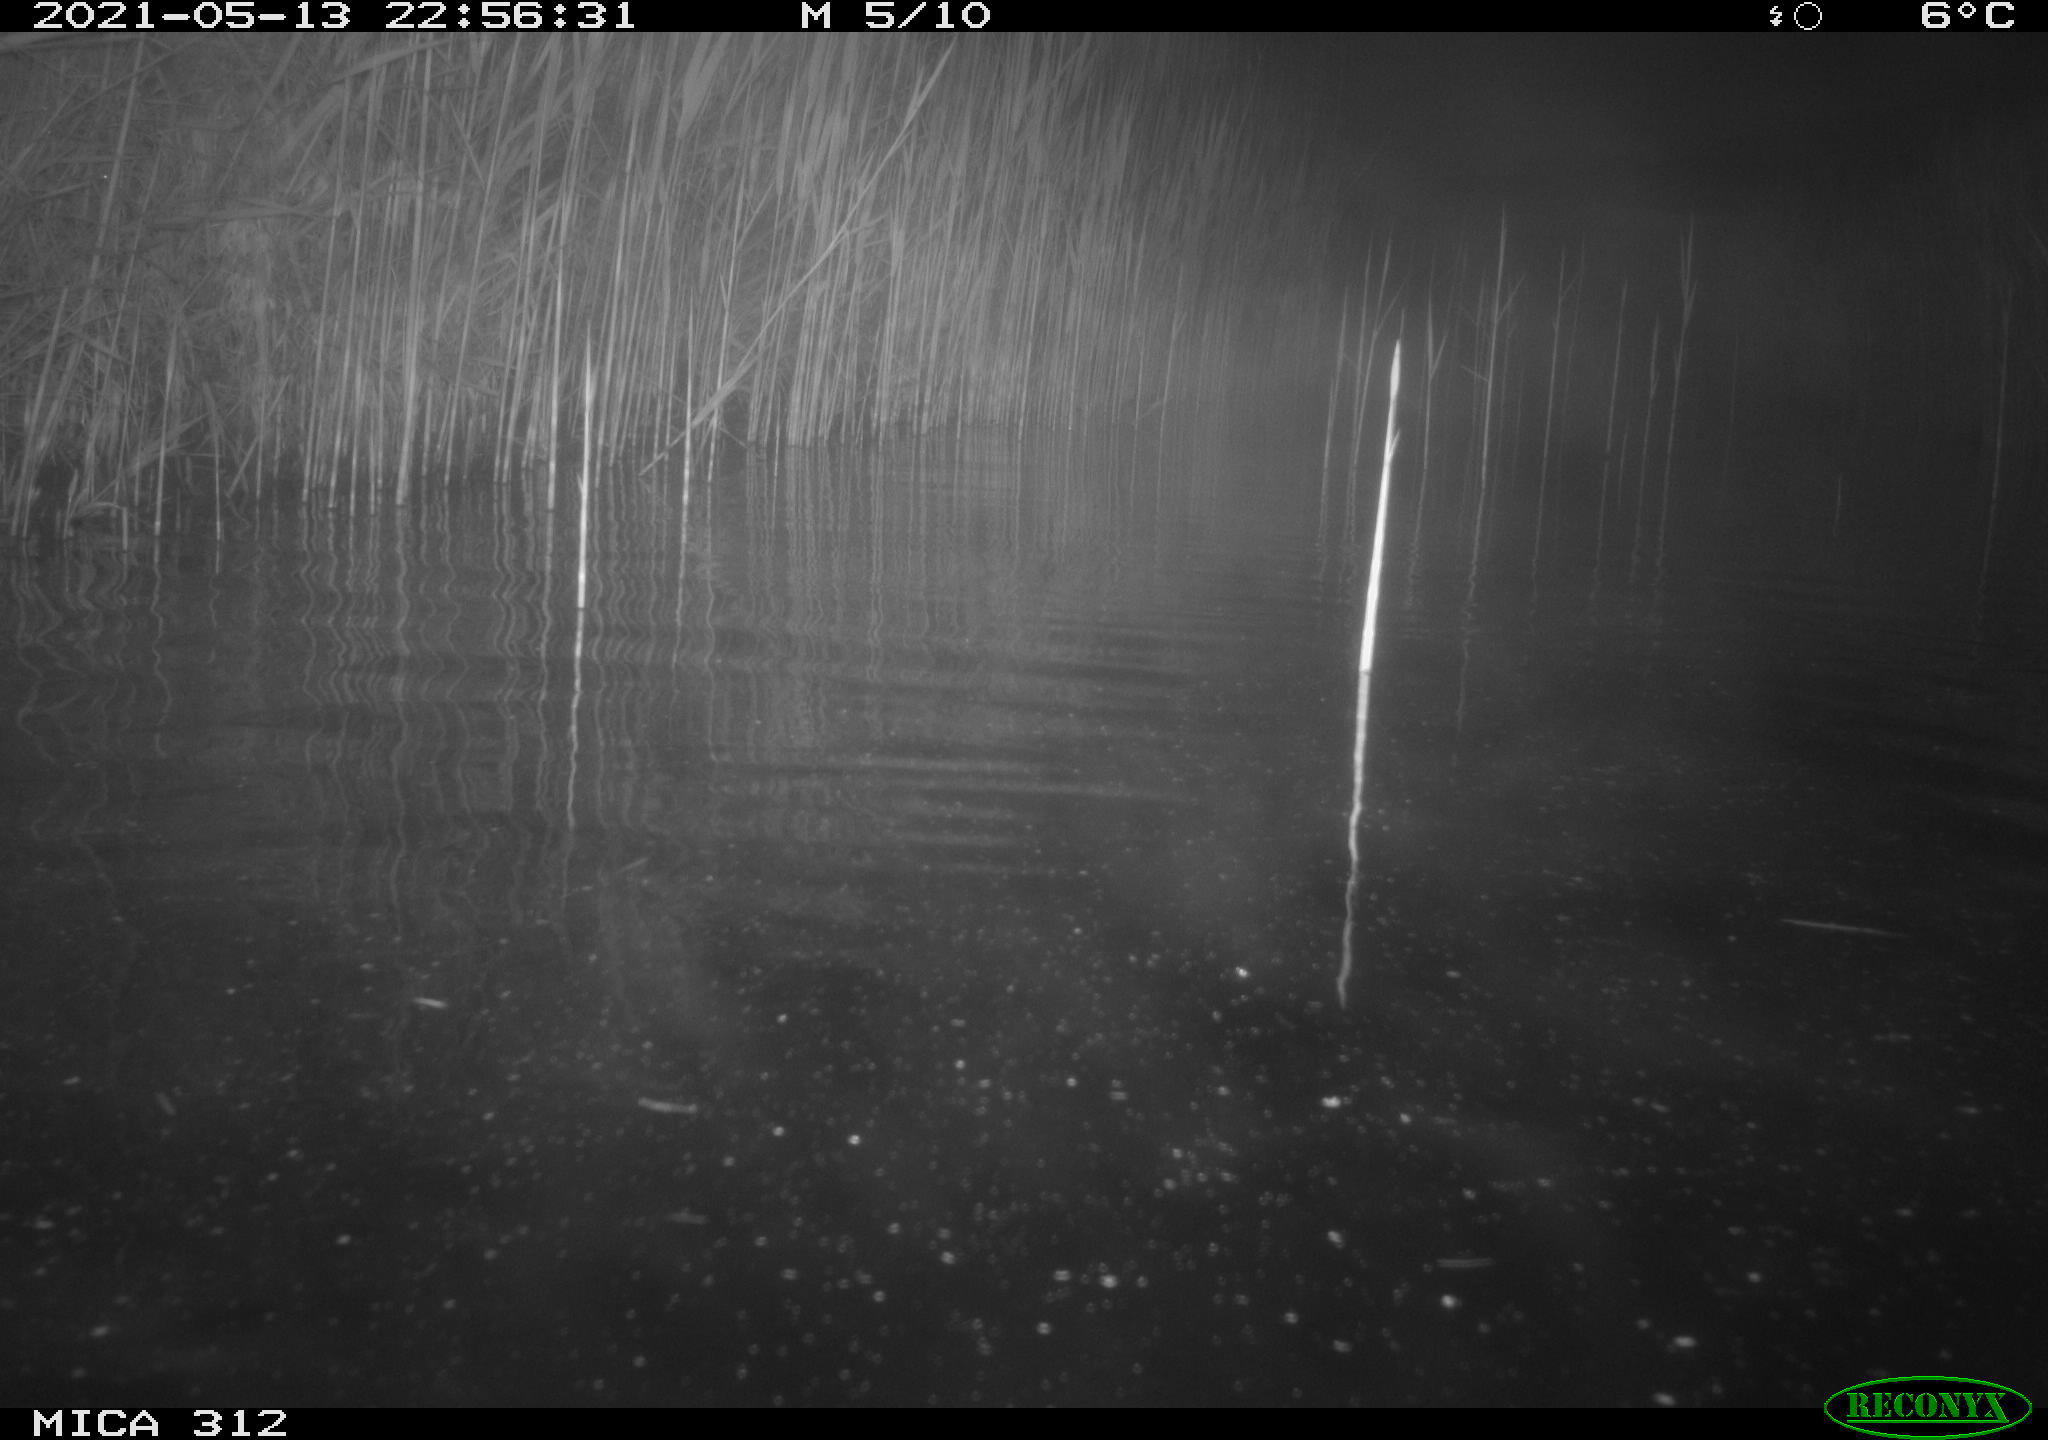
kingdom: Animalia
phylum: Chordata
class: Mammalia
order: Rodentia
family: Cricetidae
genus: Ondatra
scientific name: Ondatra zibethicus
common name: Muskrat
